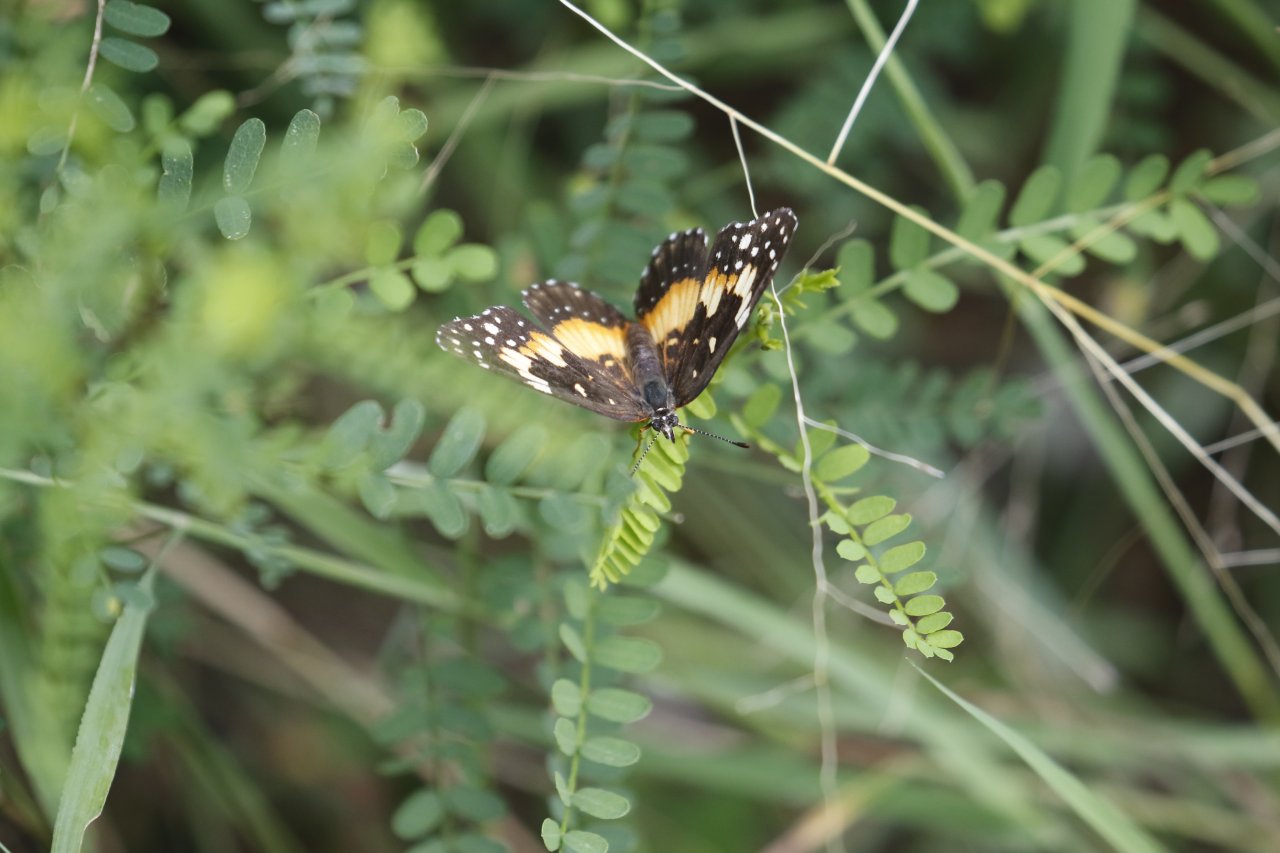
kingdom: Animalia
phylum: Arthropoda
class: Insecta
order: Lepidoptera
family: Nymphalidae
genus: Chlosyne
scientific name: Chlosyne lacinia
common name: Bordered Patch
